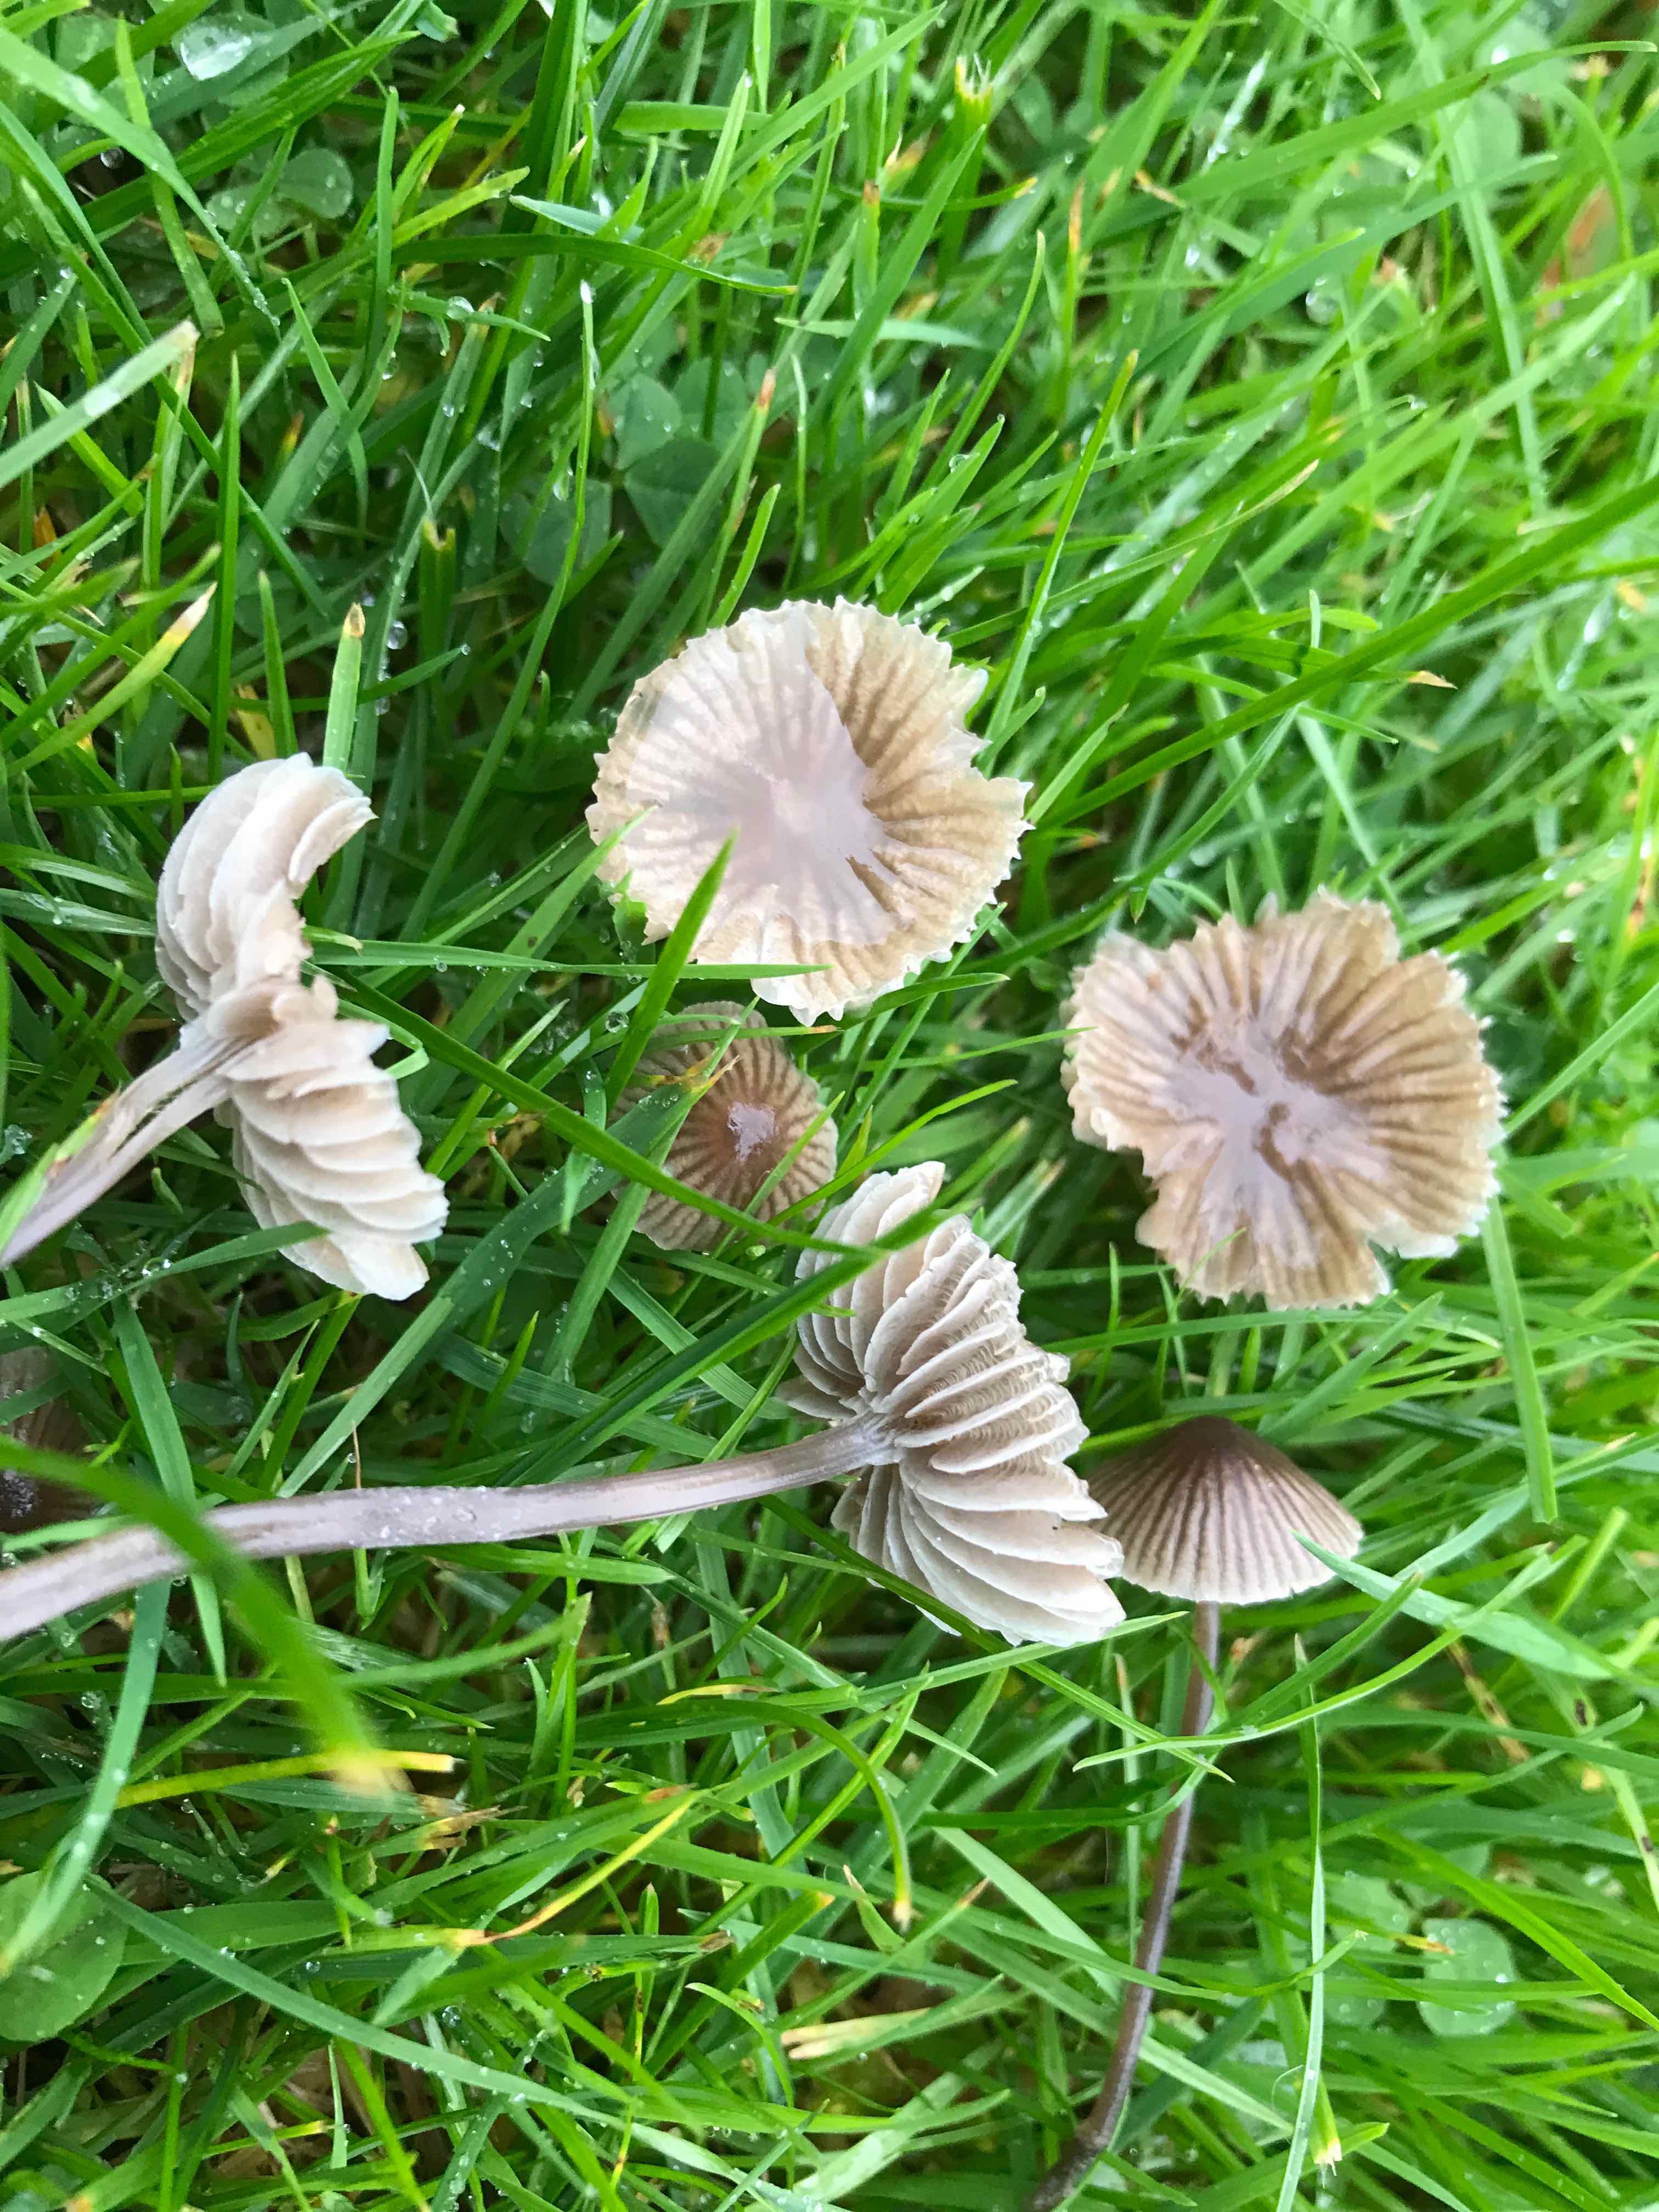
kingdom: Fungi
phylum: Basidiomycota
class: Agaricomycetes
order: Agaricales
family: Mycenaceae
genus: Mycena
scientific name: Mycena
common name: huesvamp
